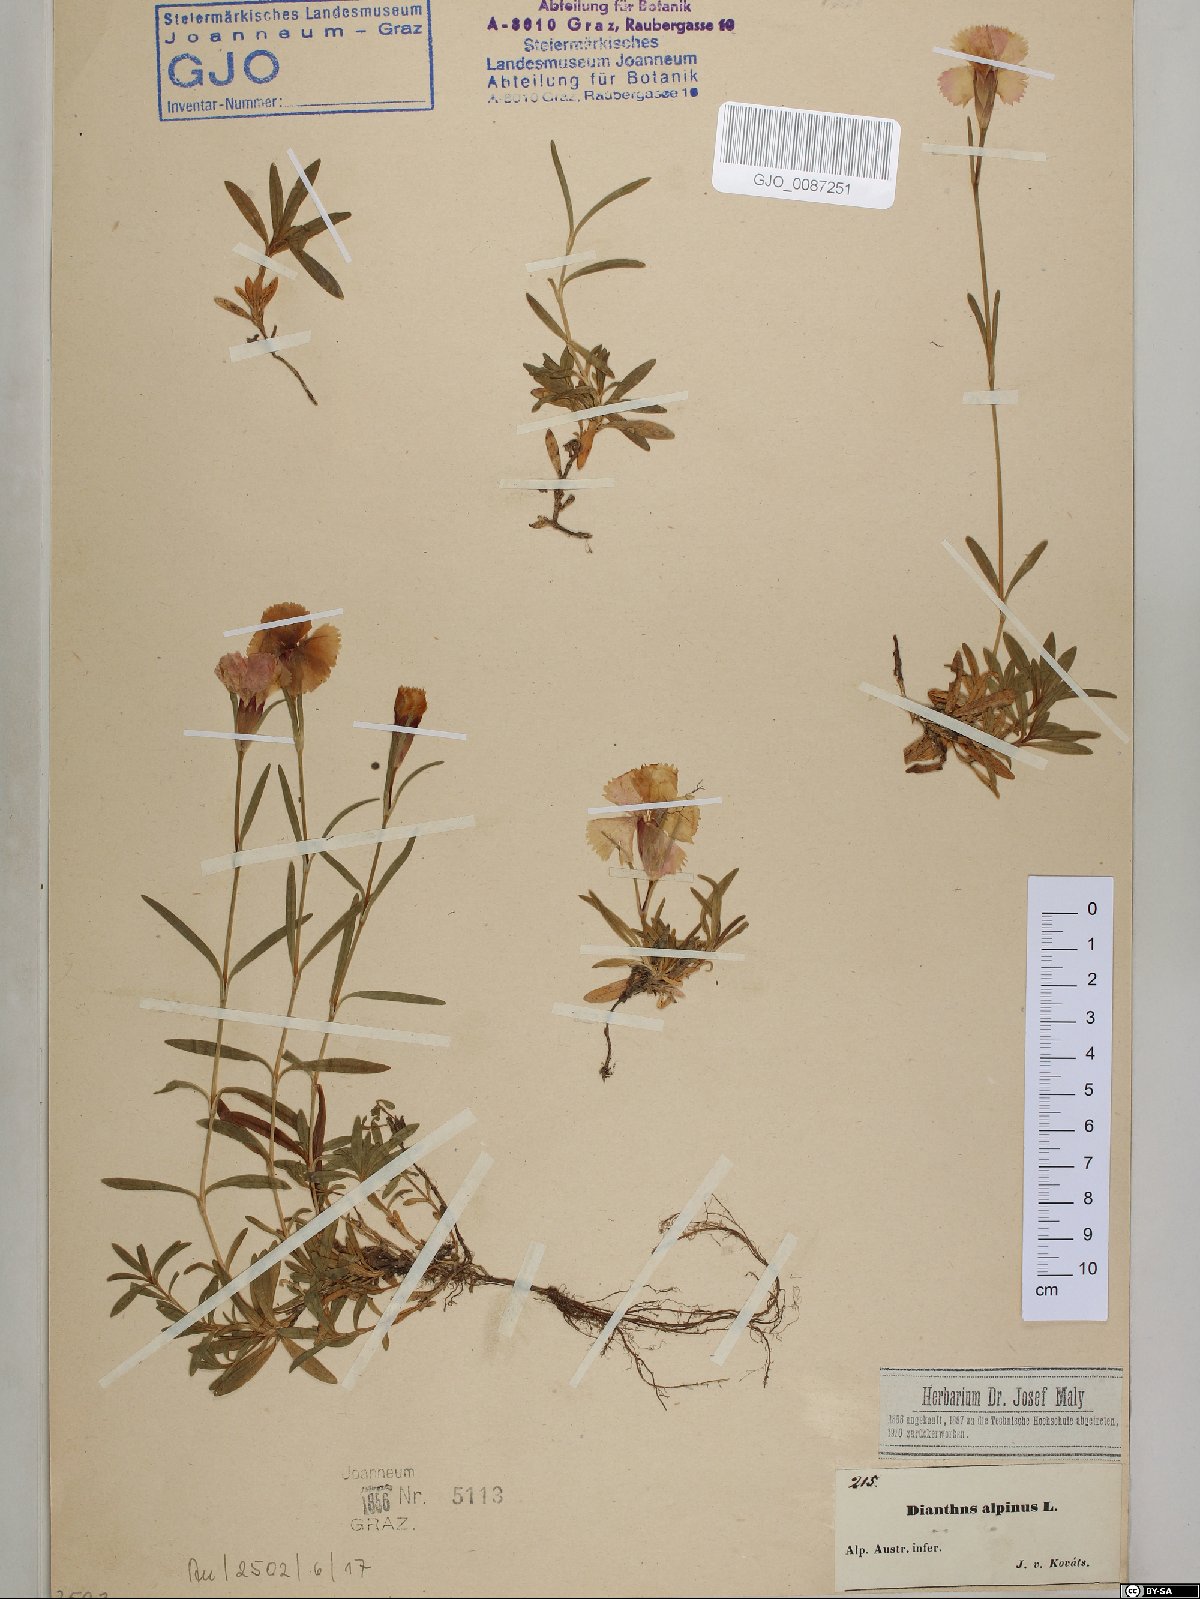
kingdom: Plantae
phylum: Tracheophyta
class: Magnoliopsida
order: Caryophyllales
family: Caryophyllaceae
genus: Dianthus
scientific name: Dianthus alpinus
